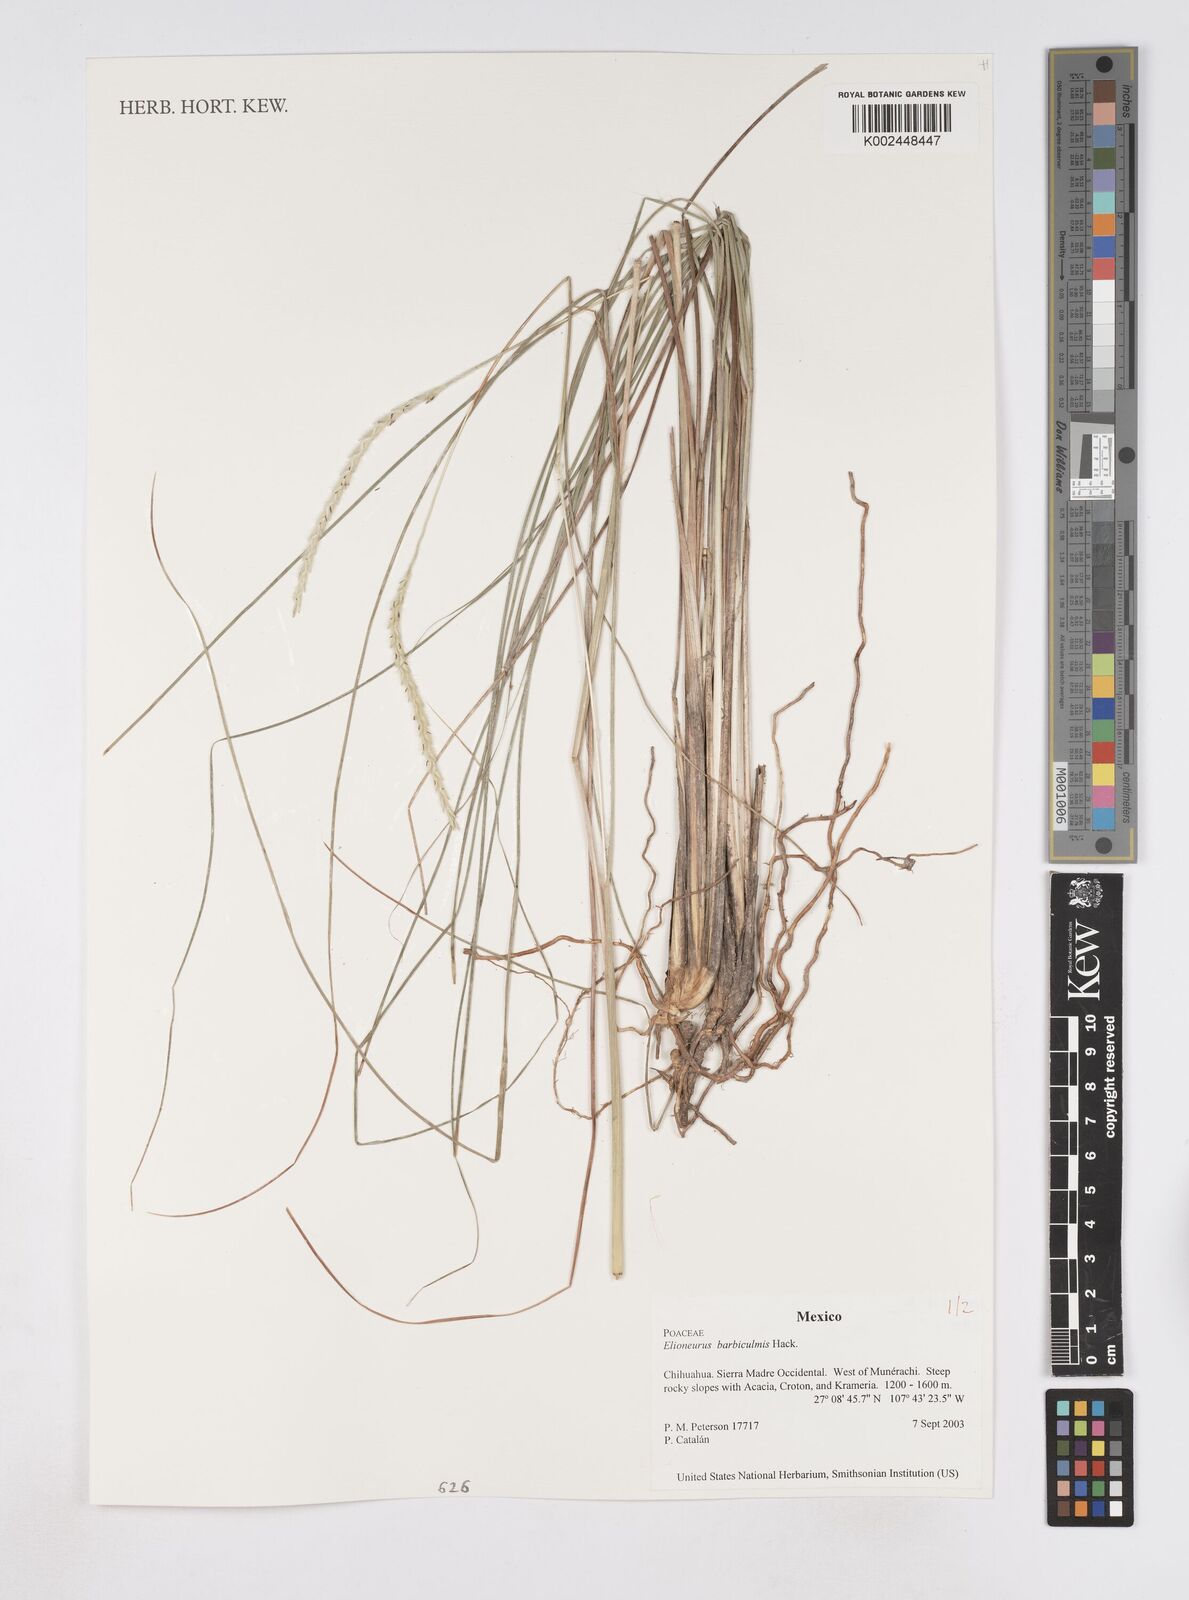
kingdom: Plantae
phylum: Tracheophyta
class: Liliopsida
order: Poales
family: Poaceae
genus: Elionurus
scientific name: Elionurus barbiculmis
